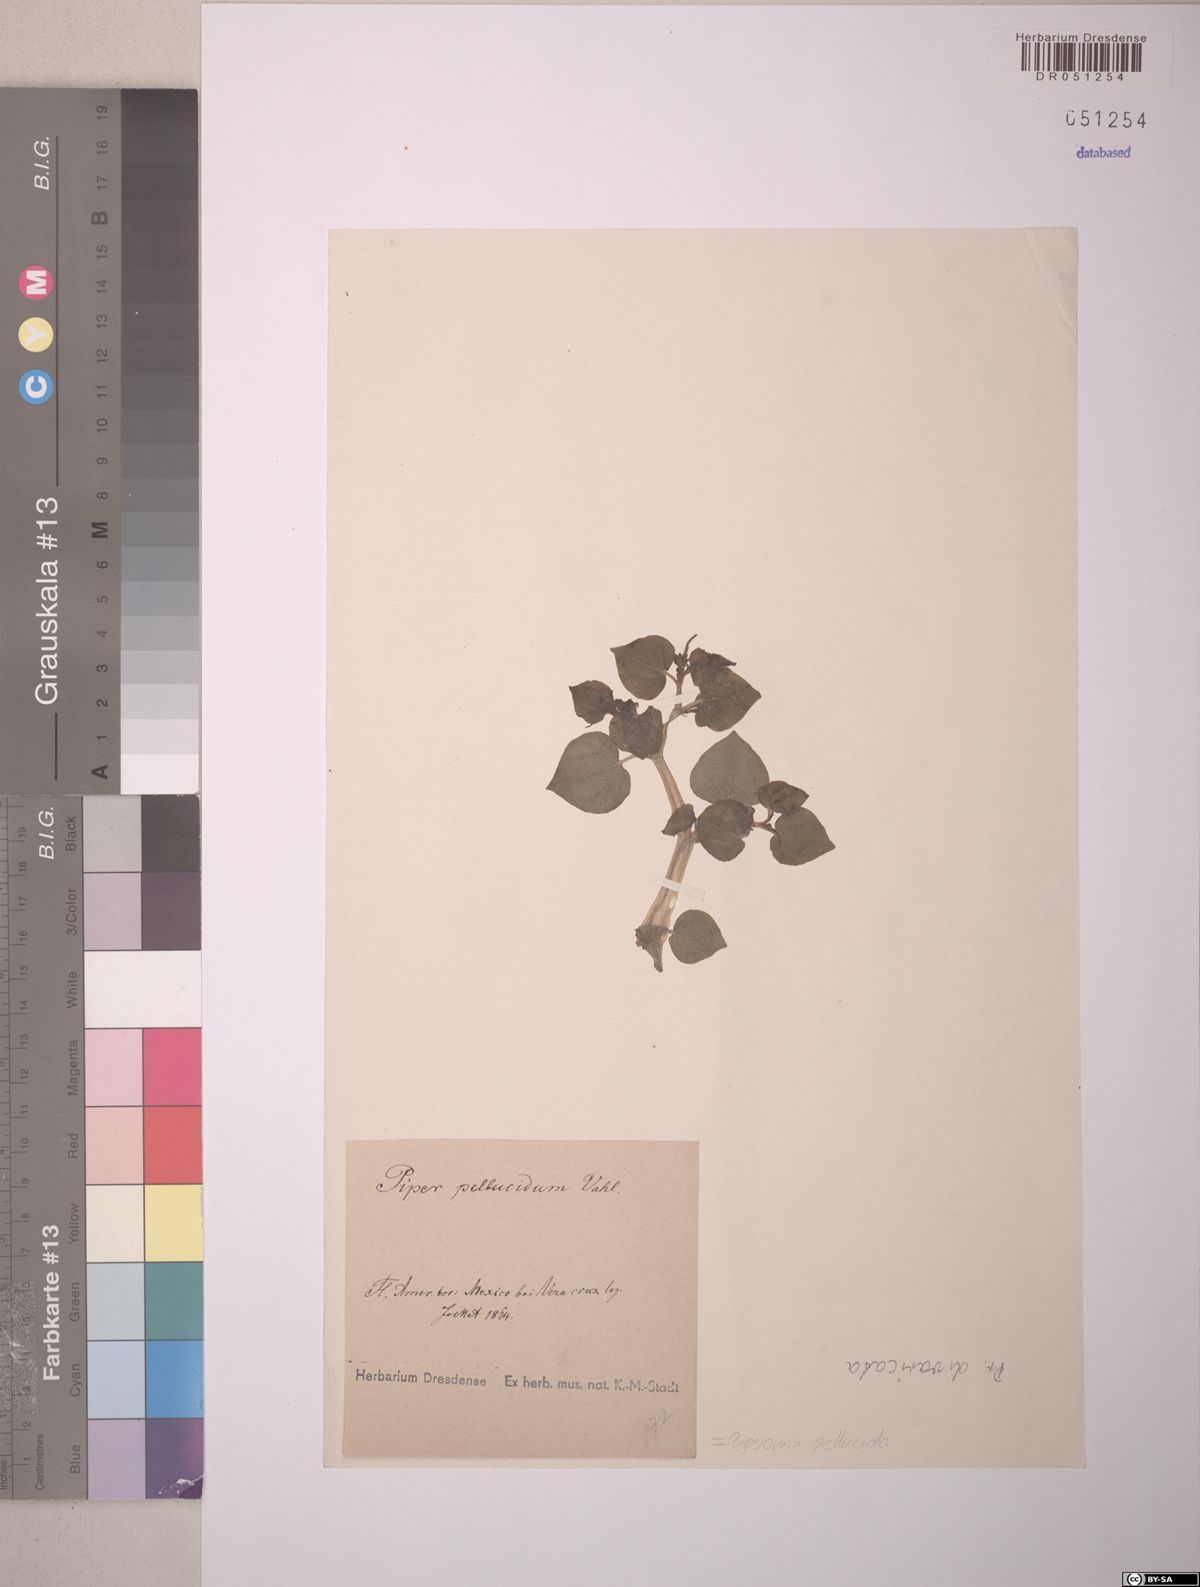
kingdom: Plantae
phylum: Tracheophyta
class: Magnoliopsida
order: Piperales
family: Piperaceae
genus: Peperomia
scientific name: Peperomia pellucida
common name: Man to man
